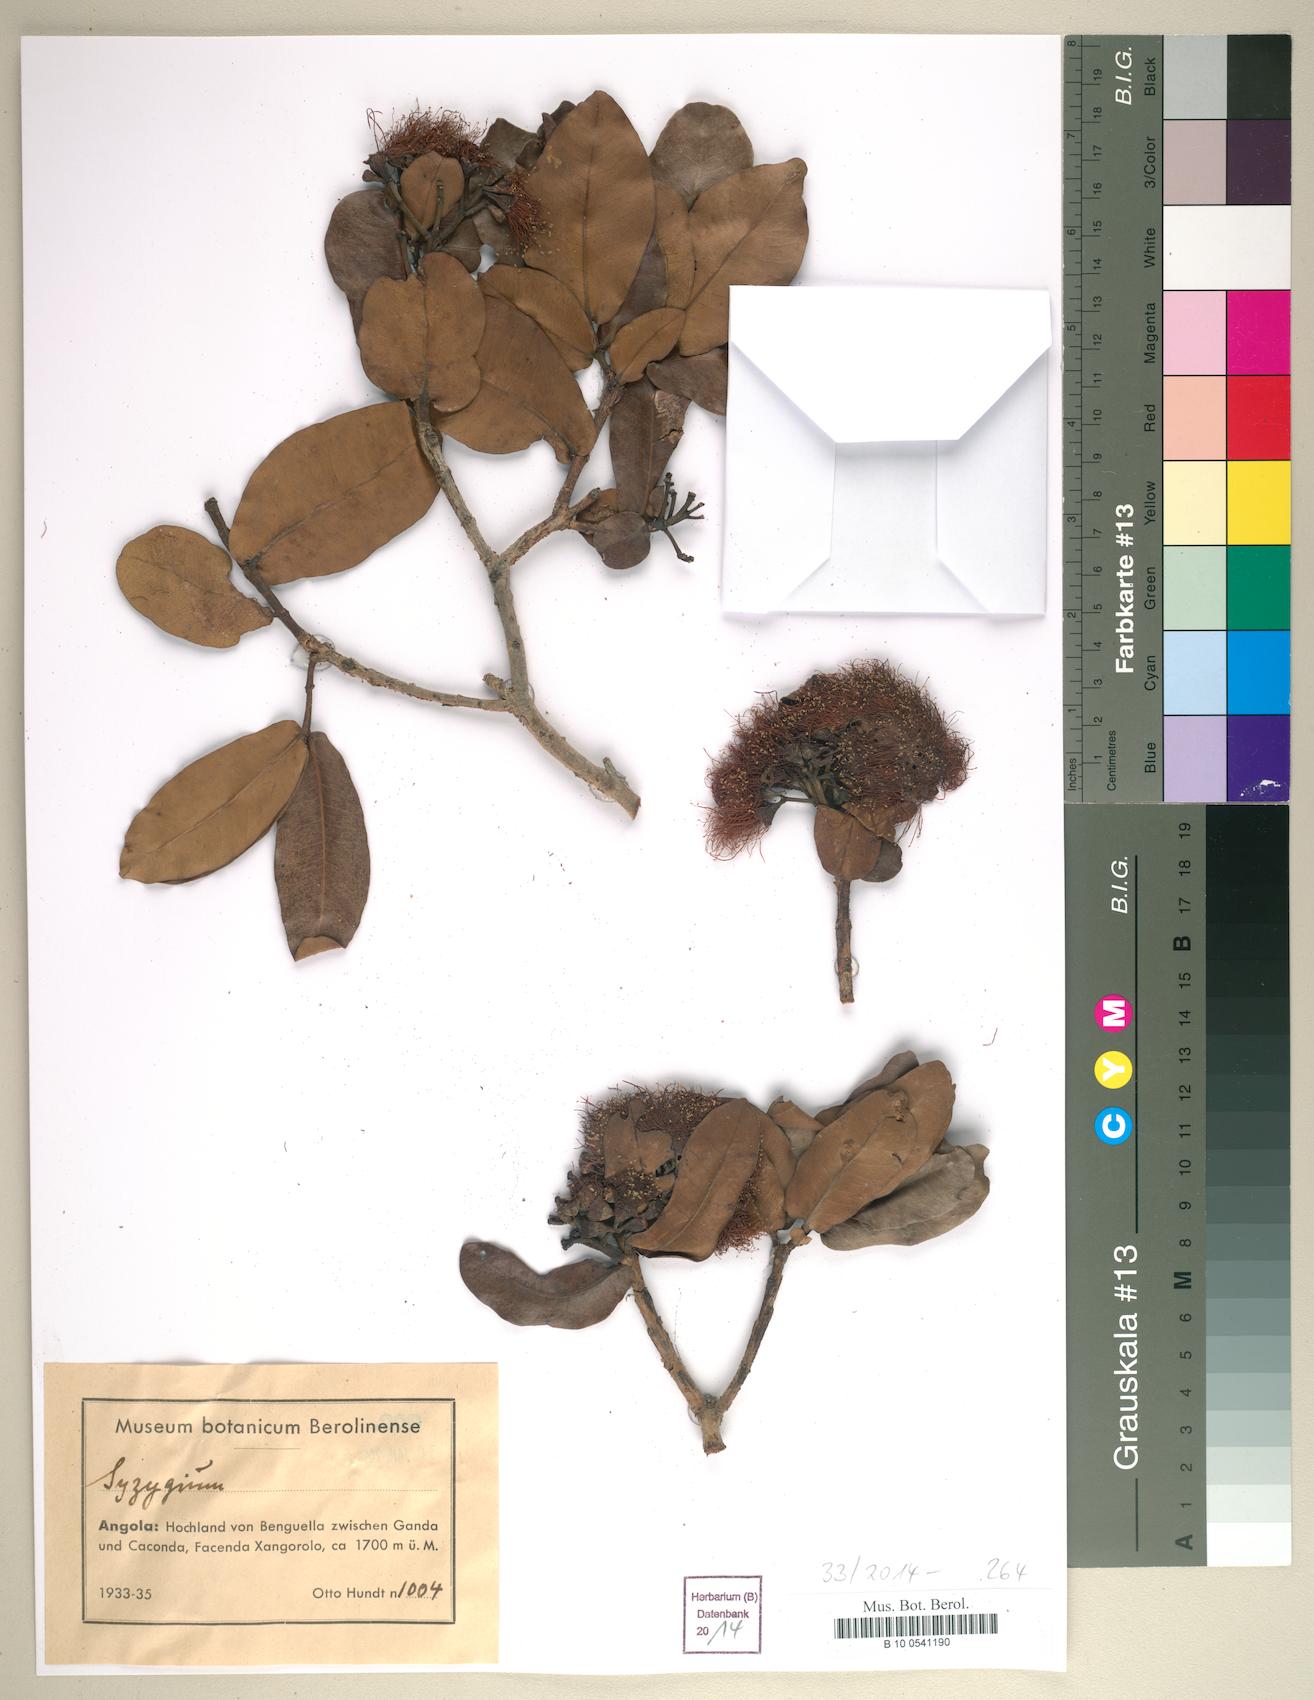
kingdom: Plantae
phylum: Tracheophyta
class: Magnoliopsida
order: Myrtales
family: Myrtaceae
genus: Syzygium
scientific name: Syzygium
